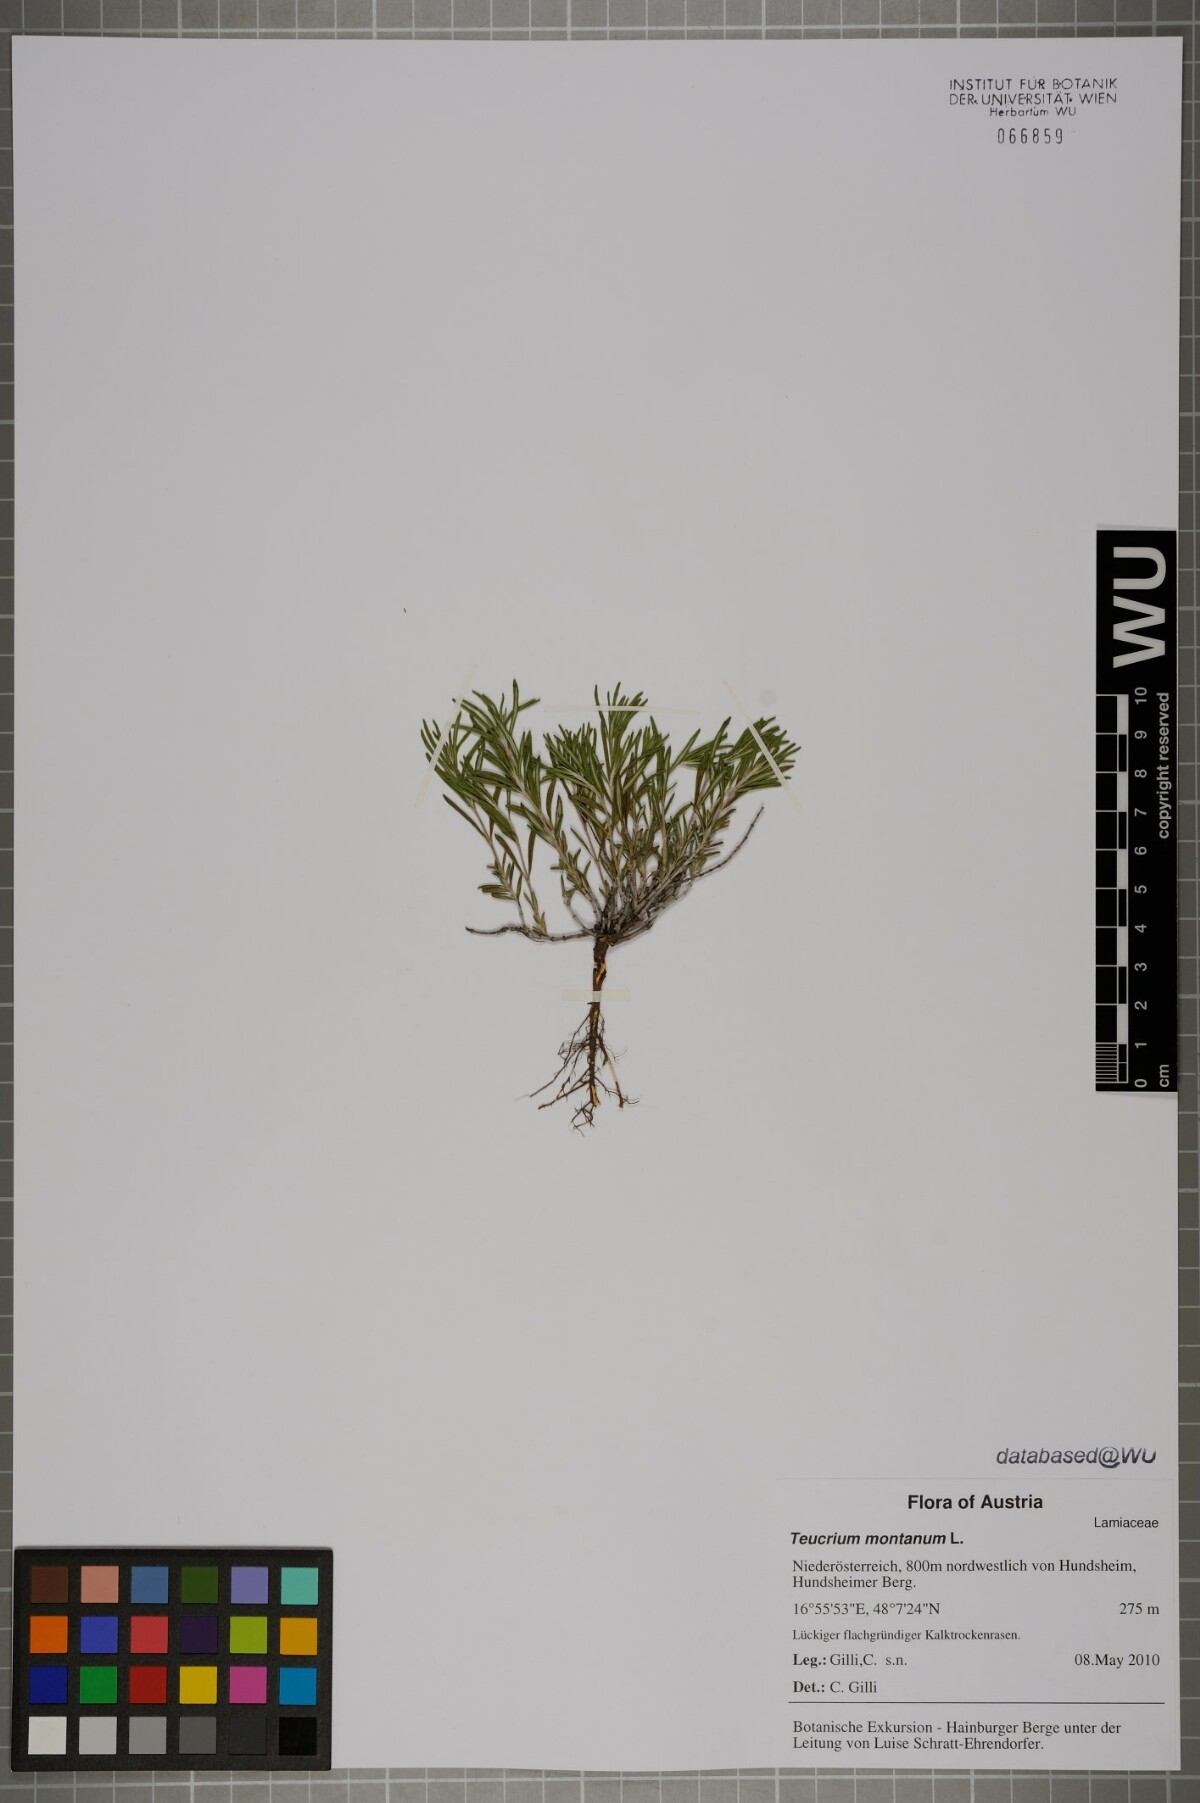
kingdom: Plantae
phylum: Tracheophyta
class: Magnoliopsida
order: Lamiales
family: Lamiaceae
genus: Teucrium
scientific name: Teucrium montanum
